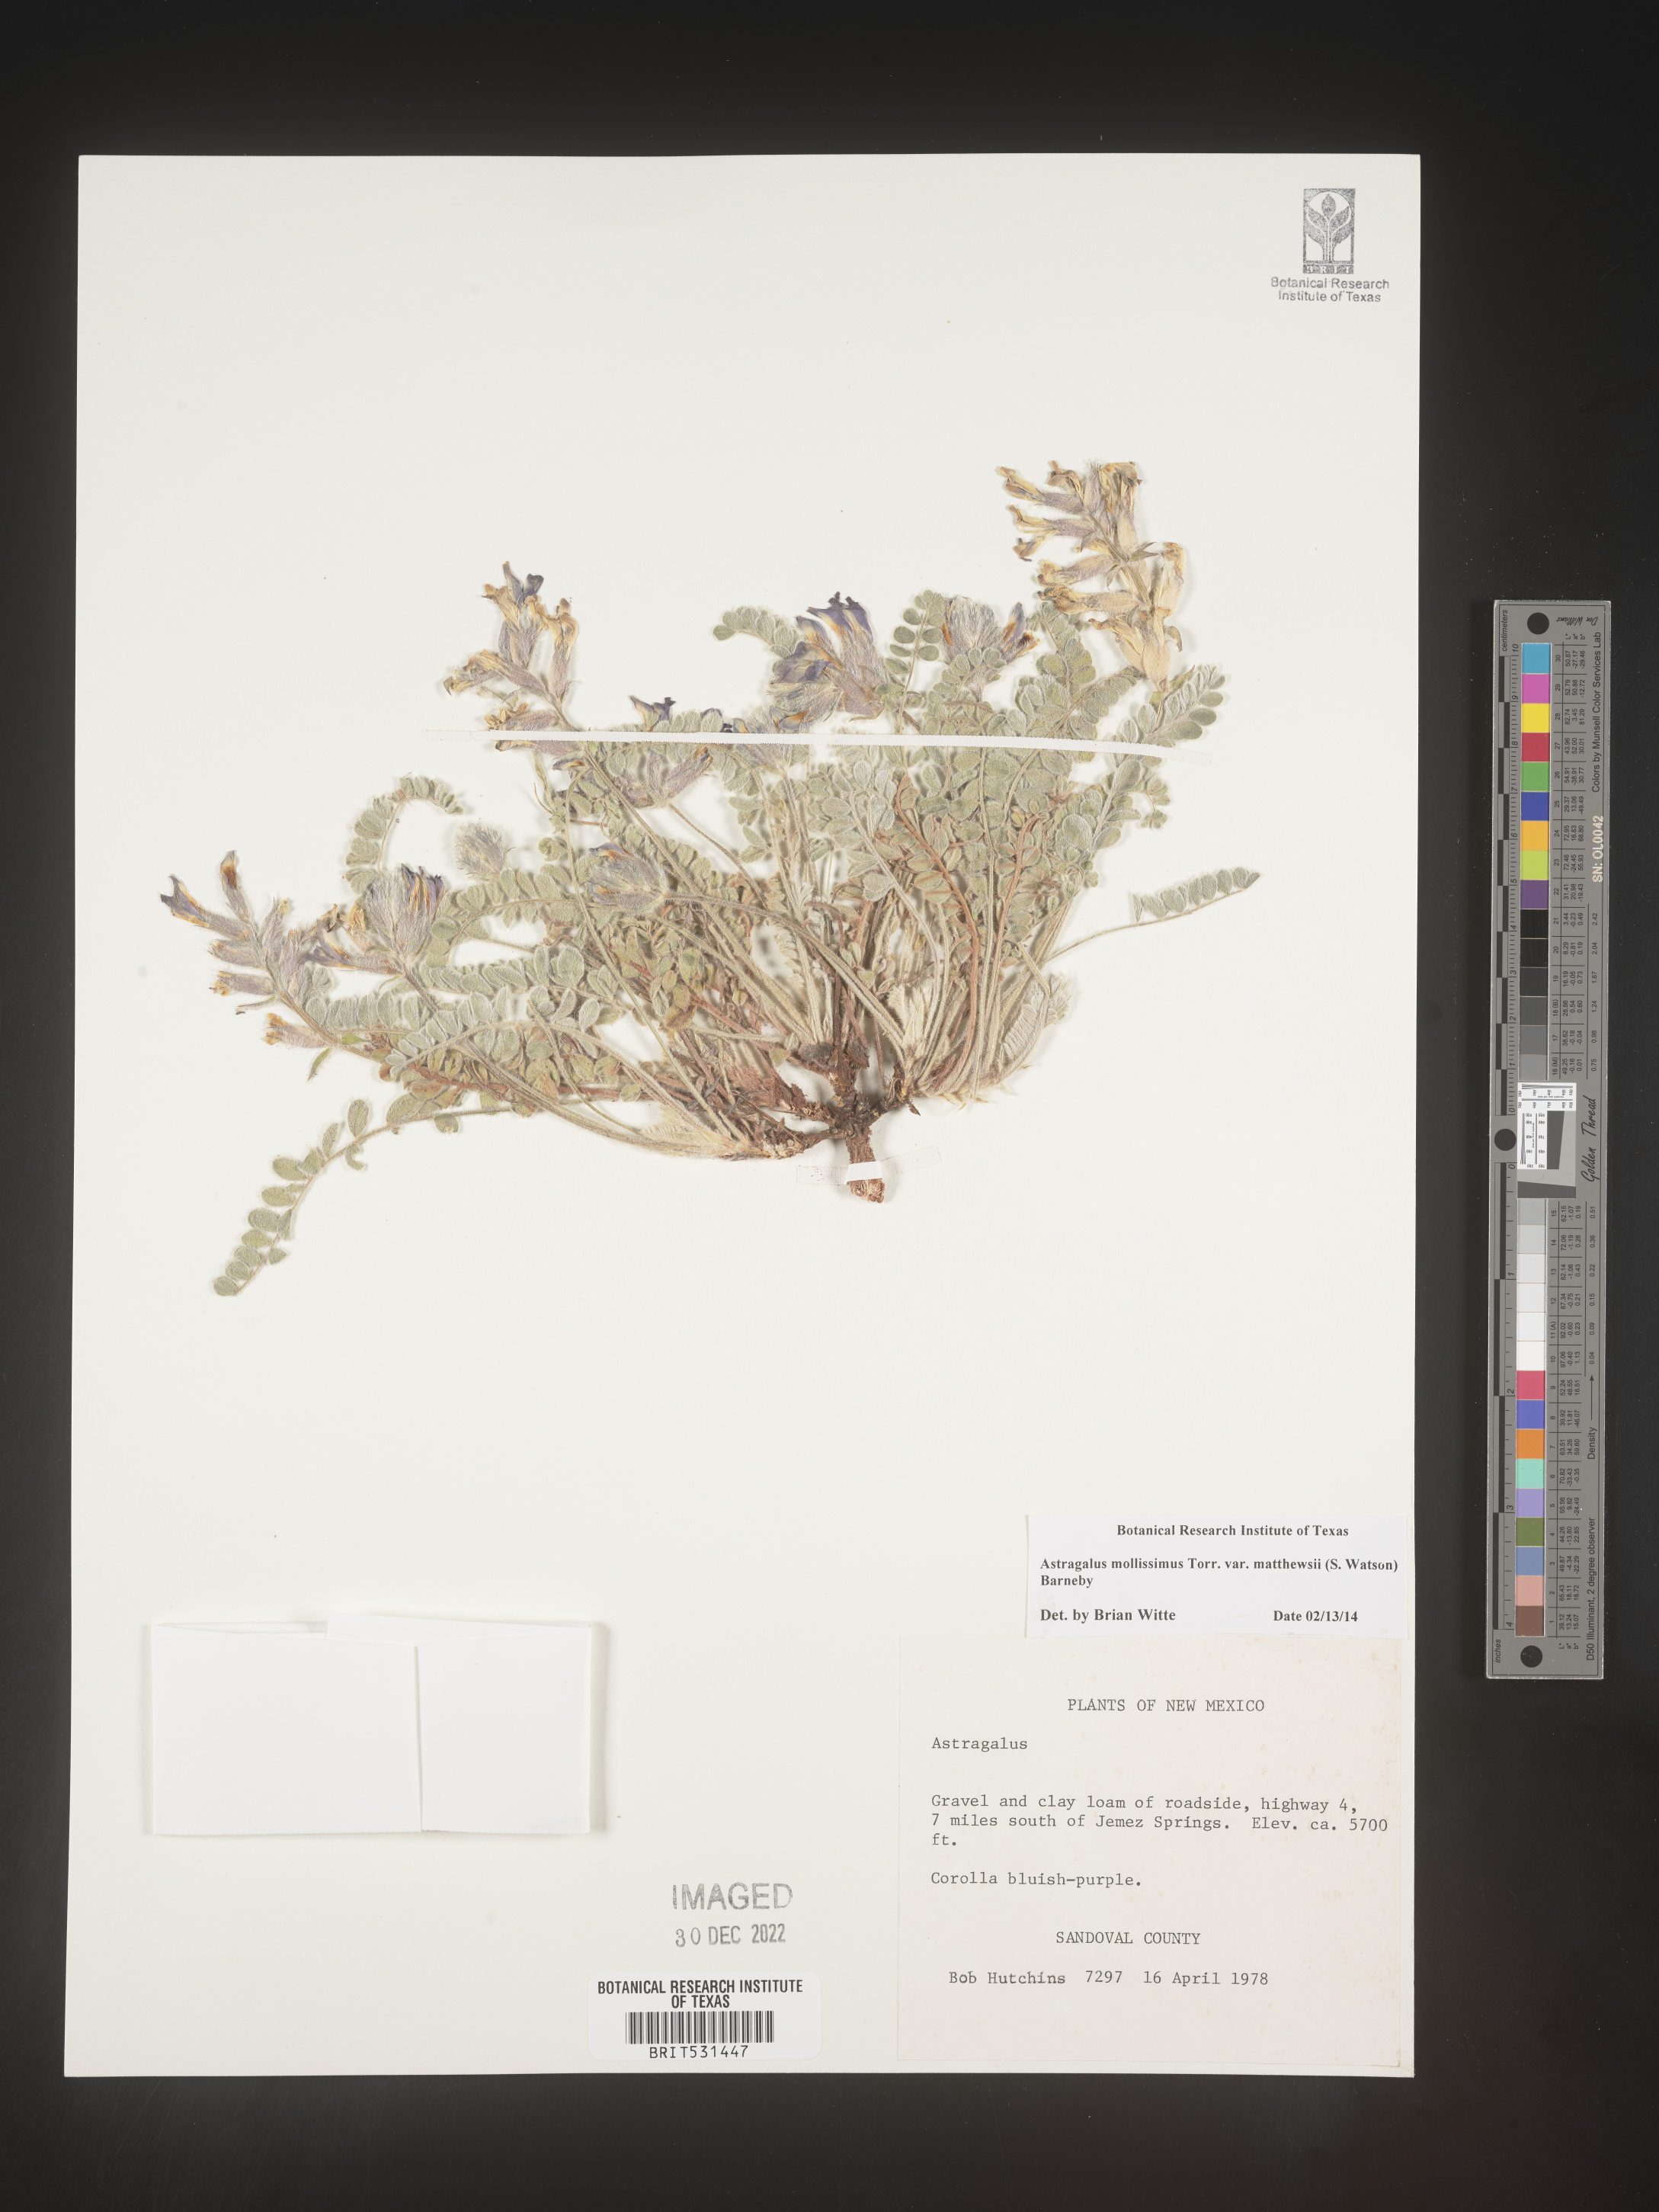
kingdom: Plantae
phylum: Tracheophyta
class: Magnoliopsida
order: Fabales
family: Fabaceae
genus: Astragalus
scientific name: Astragalus
